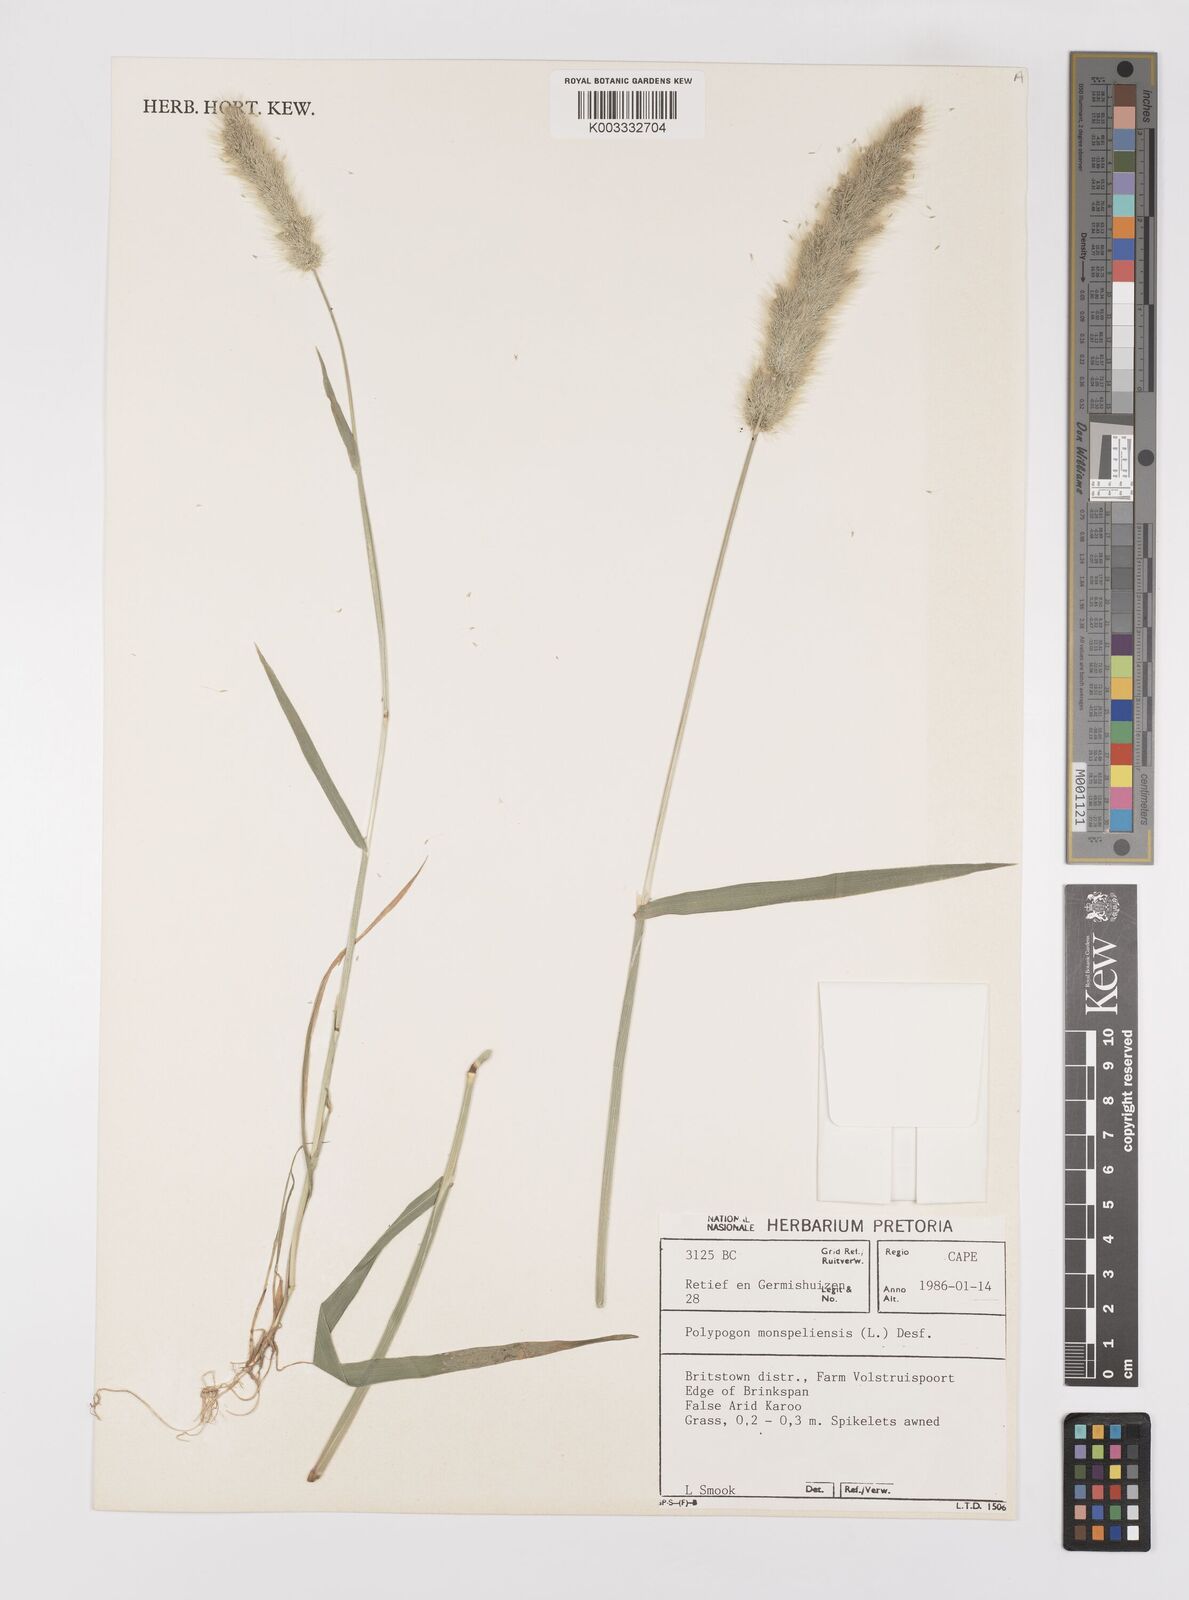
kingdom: Plantae
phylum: Tracheophyta
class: Liliopsida
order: Poales
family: Poaceae
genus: Polypogon
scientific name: Polypogon monspeliensis
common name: Annual rabbitsfoot grass
